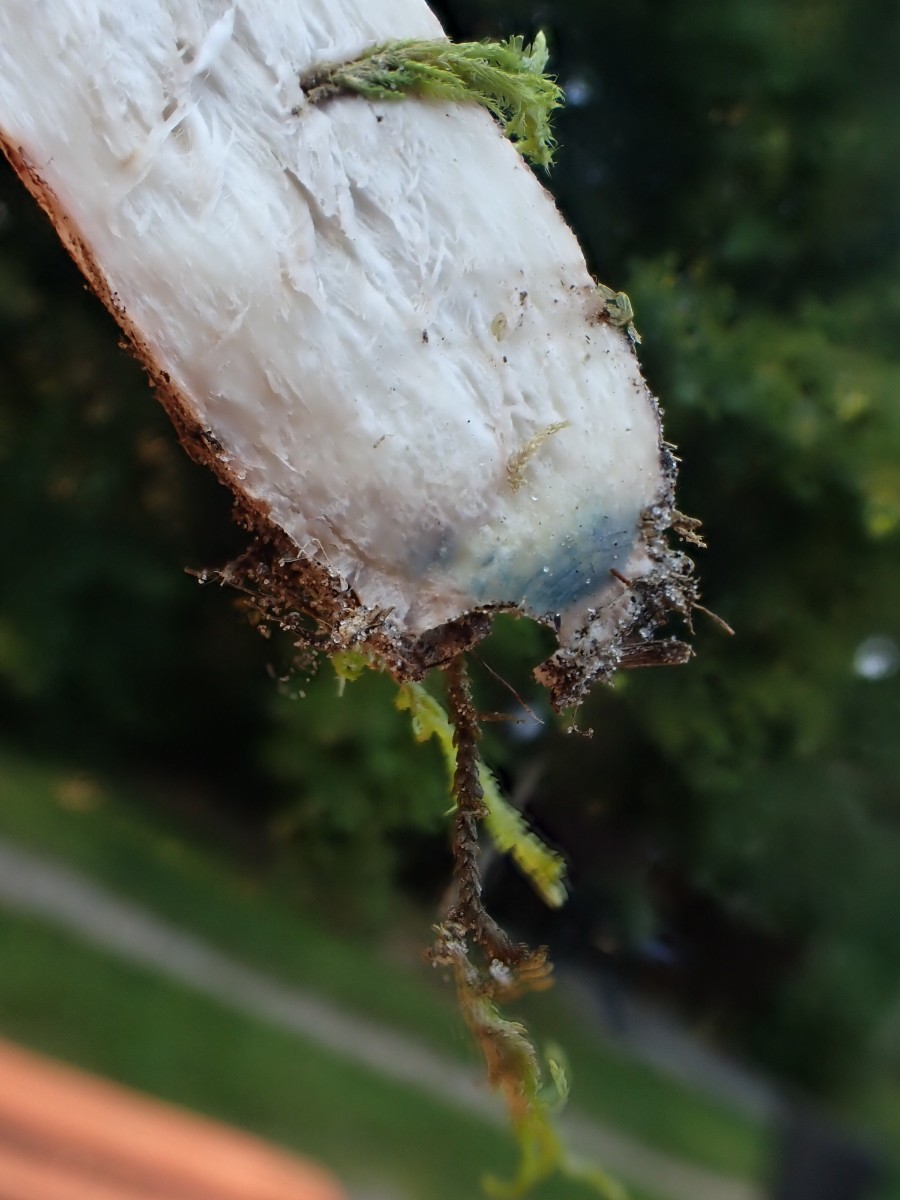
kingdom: Fungi
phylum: Basidiomycota
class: Agaricomycetes
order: Boletales
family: Boletaceae
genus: Leccinum
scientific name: Leccinum albostipitatum
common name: aspe-skælrørhat
